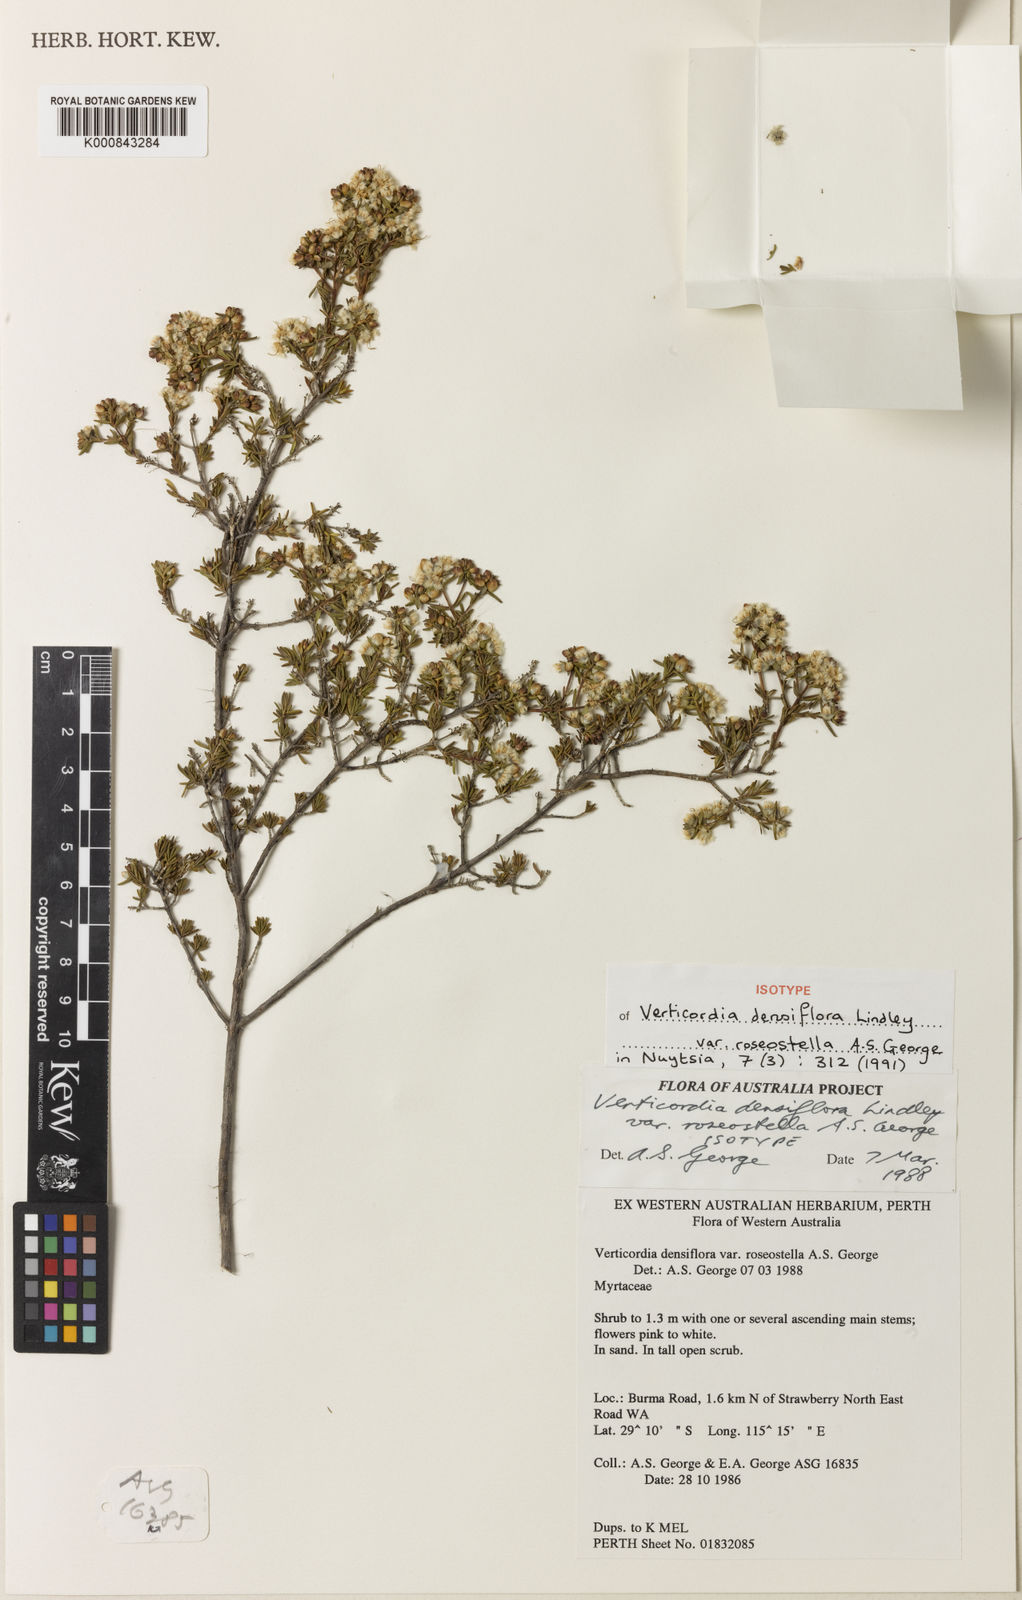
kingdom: Plantae
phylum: Tracheophyta
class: Magnoliopsida
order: Myrtales
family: Myrtaceae
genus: Verticordia
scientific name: Verticordia densiflora
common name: Compact feather-flower
